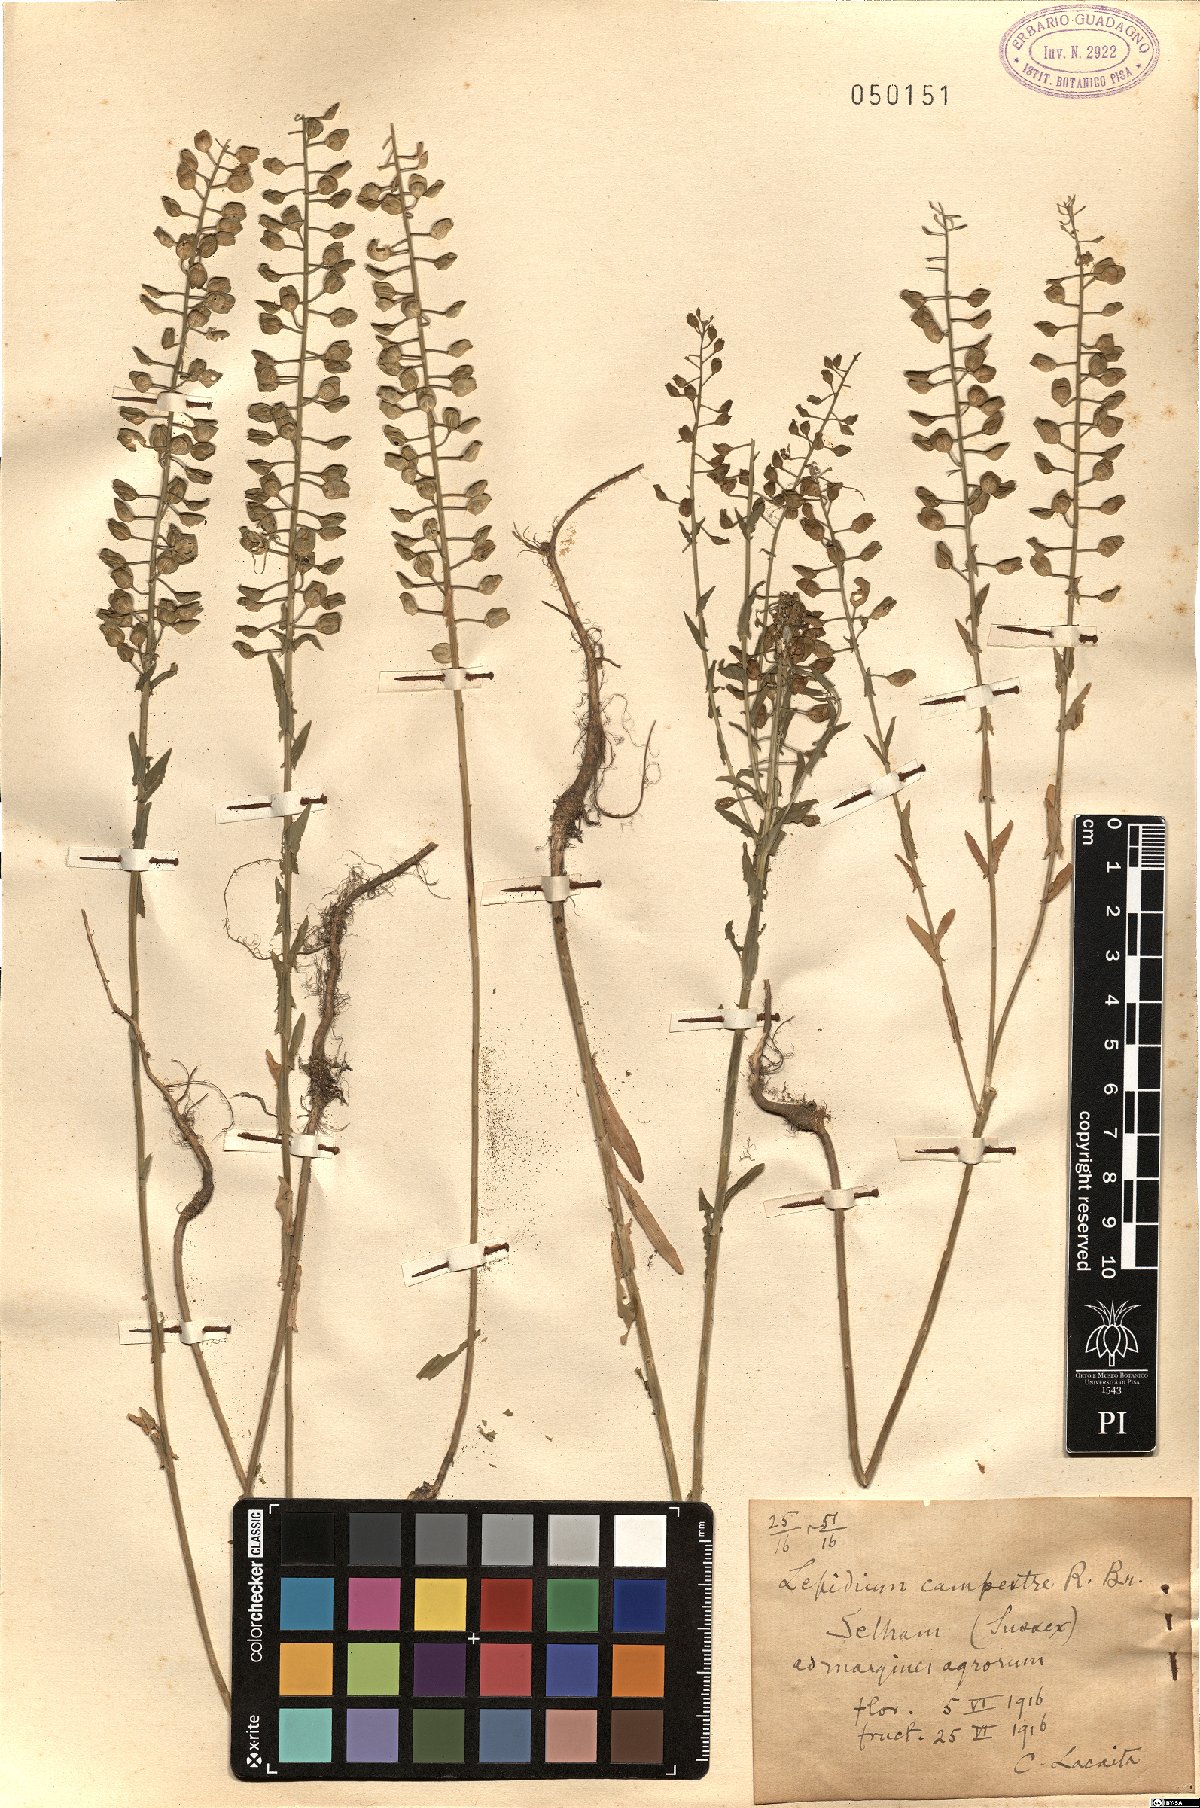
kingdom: Plantae
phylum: Tracheophyta
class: Magnoliopsida
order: Brassicales
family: Brassicaceae
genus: Lepidium
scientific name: Lepidium campestre
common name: Field pepperwort
